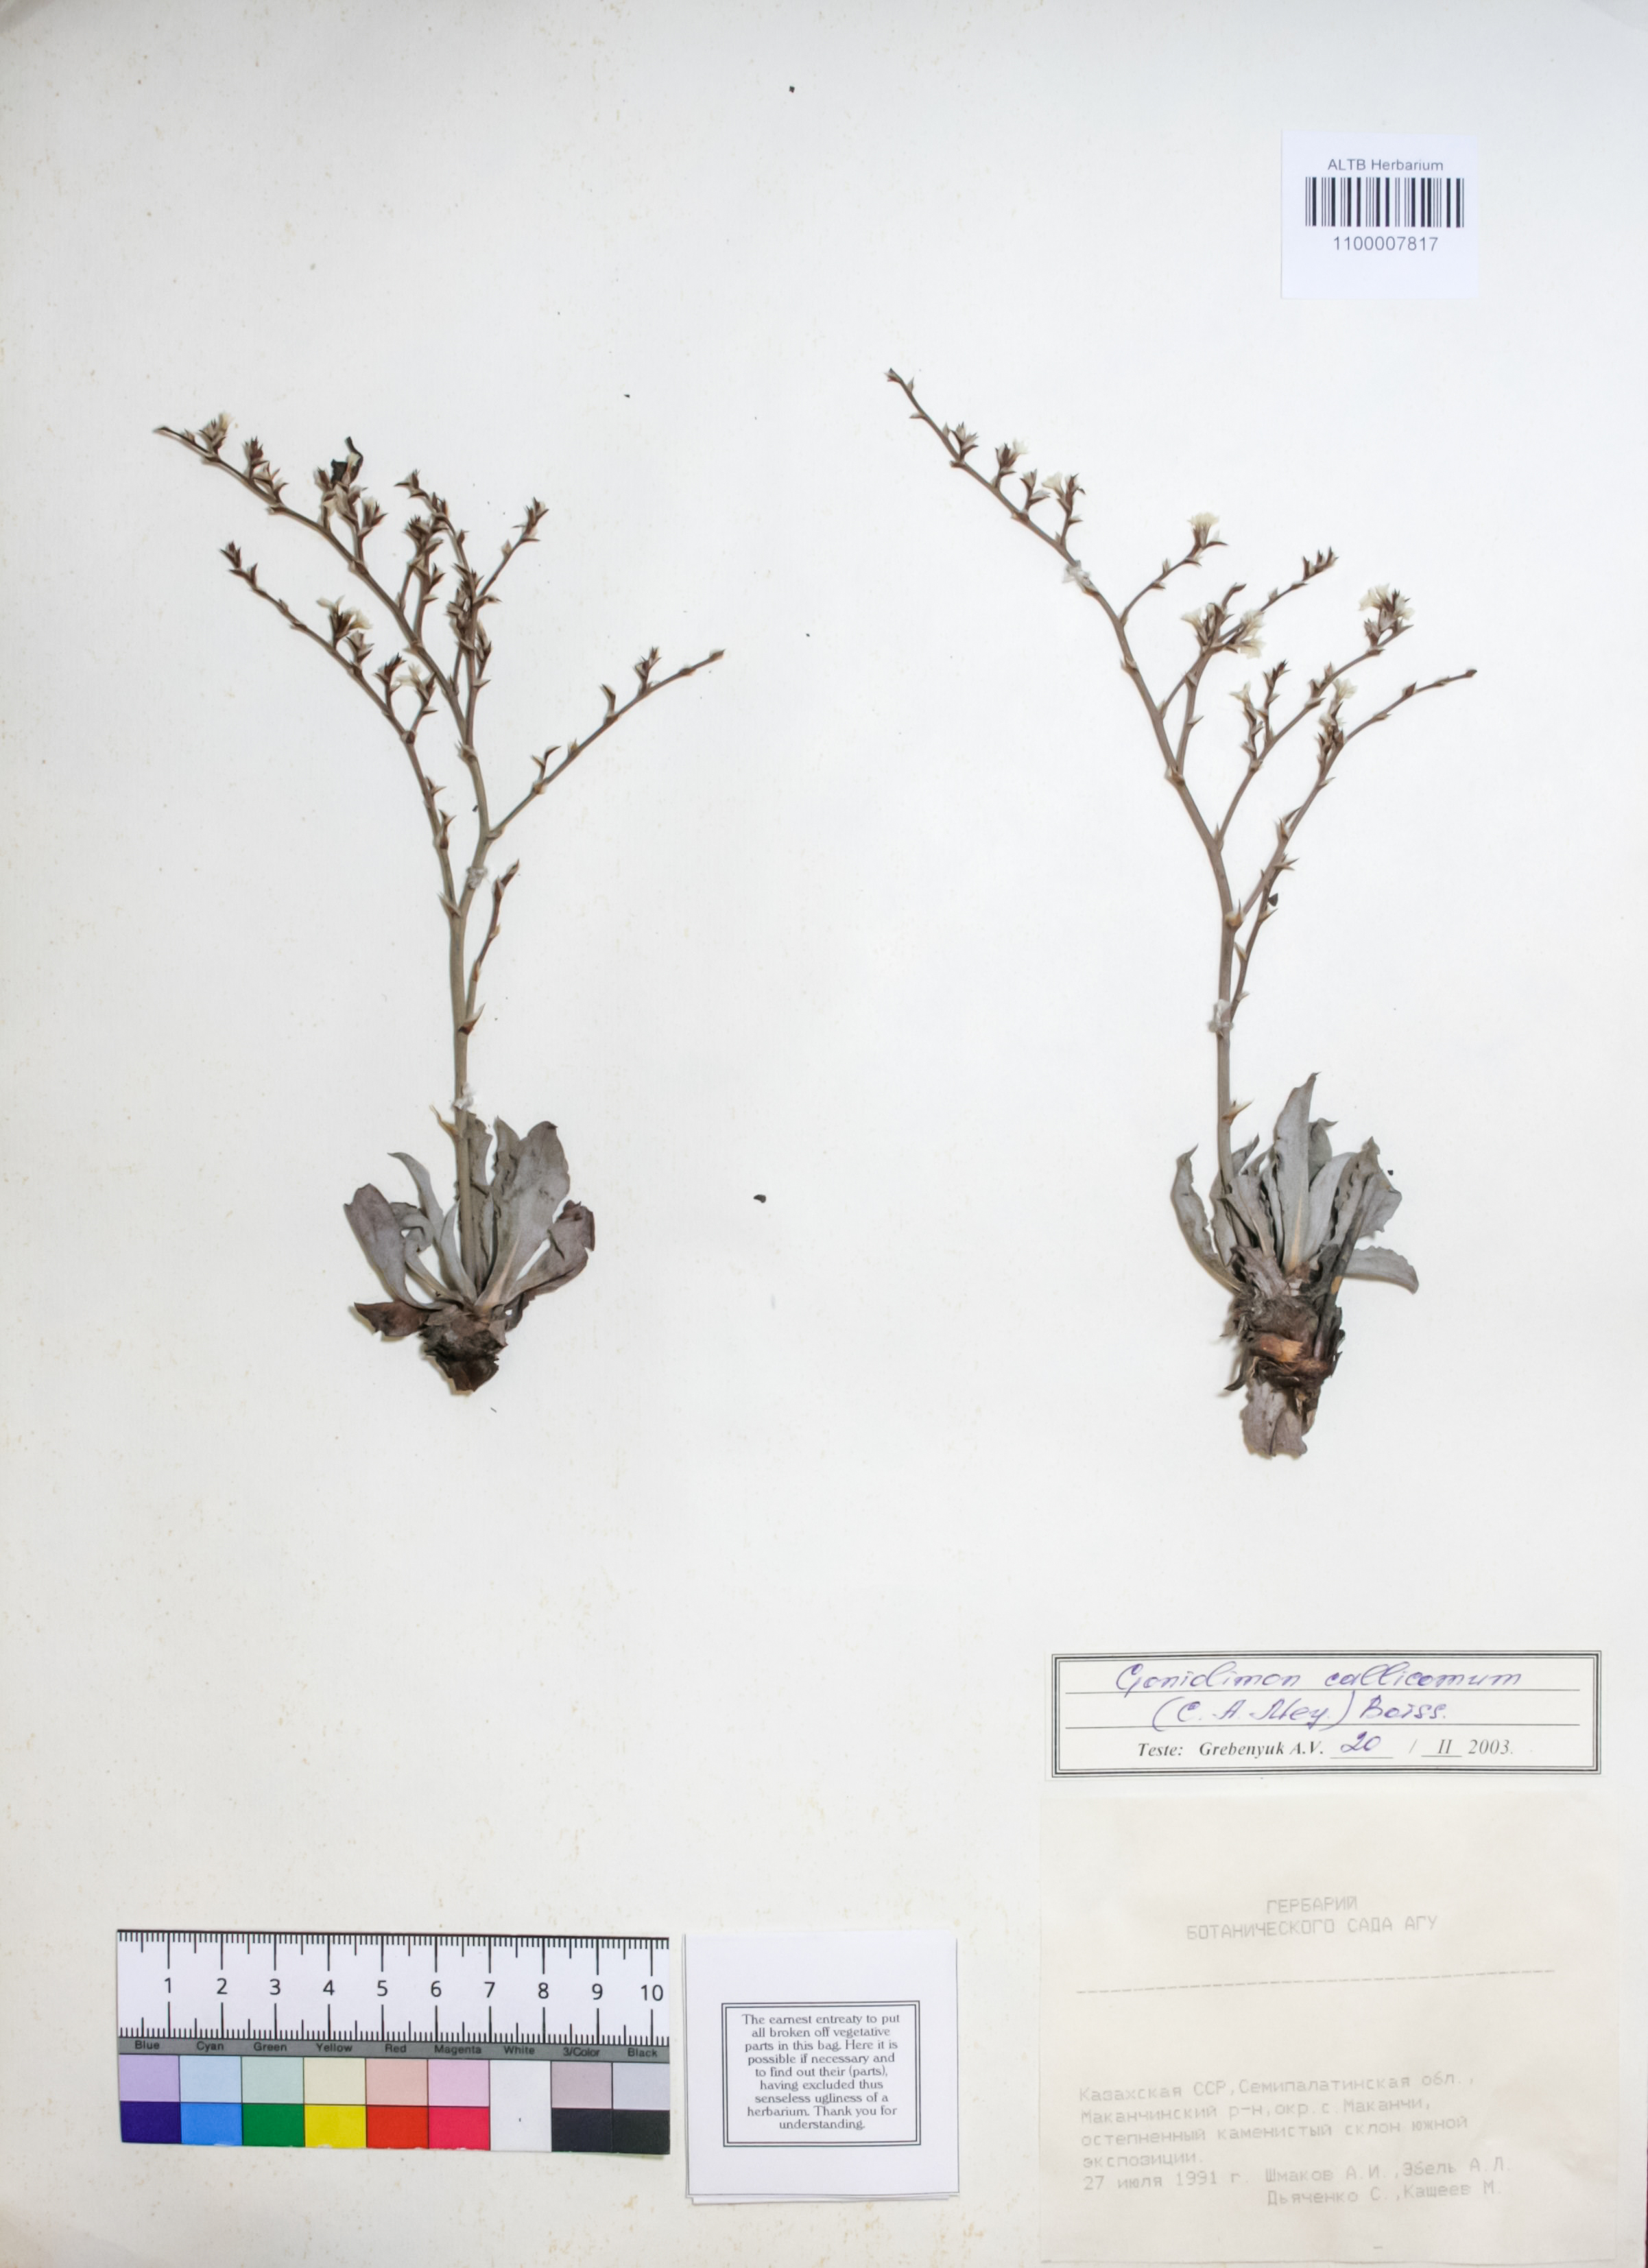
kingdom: Plantae
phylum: Tracheophyta
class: Magnoliopsida
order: Caryophyllales
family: Plumbaginaceae
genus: Goniolimon
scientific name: Goniolimon callicomum
